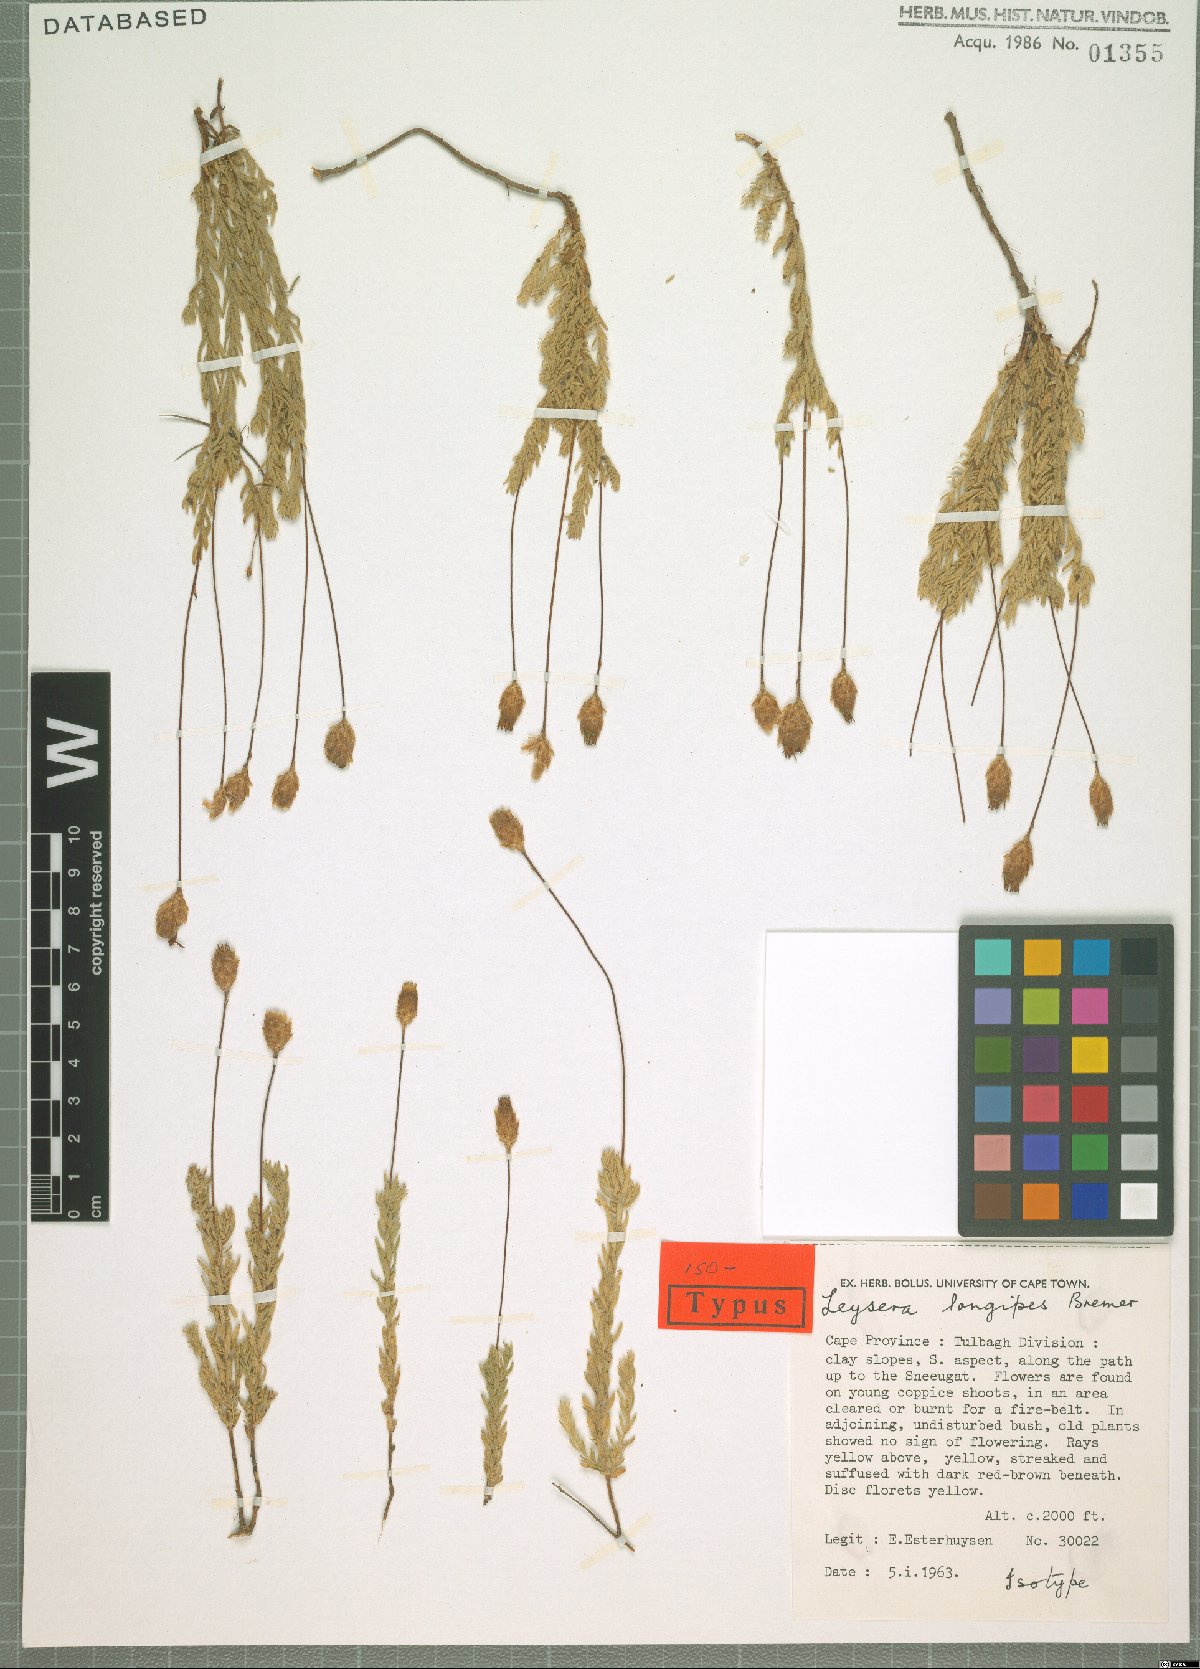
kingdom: Plantae
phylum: Tracheophyta
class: Magnoliopsida
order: Asterales
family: Asteraceae
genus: Oedera
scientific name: Oedera longipes
